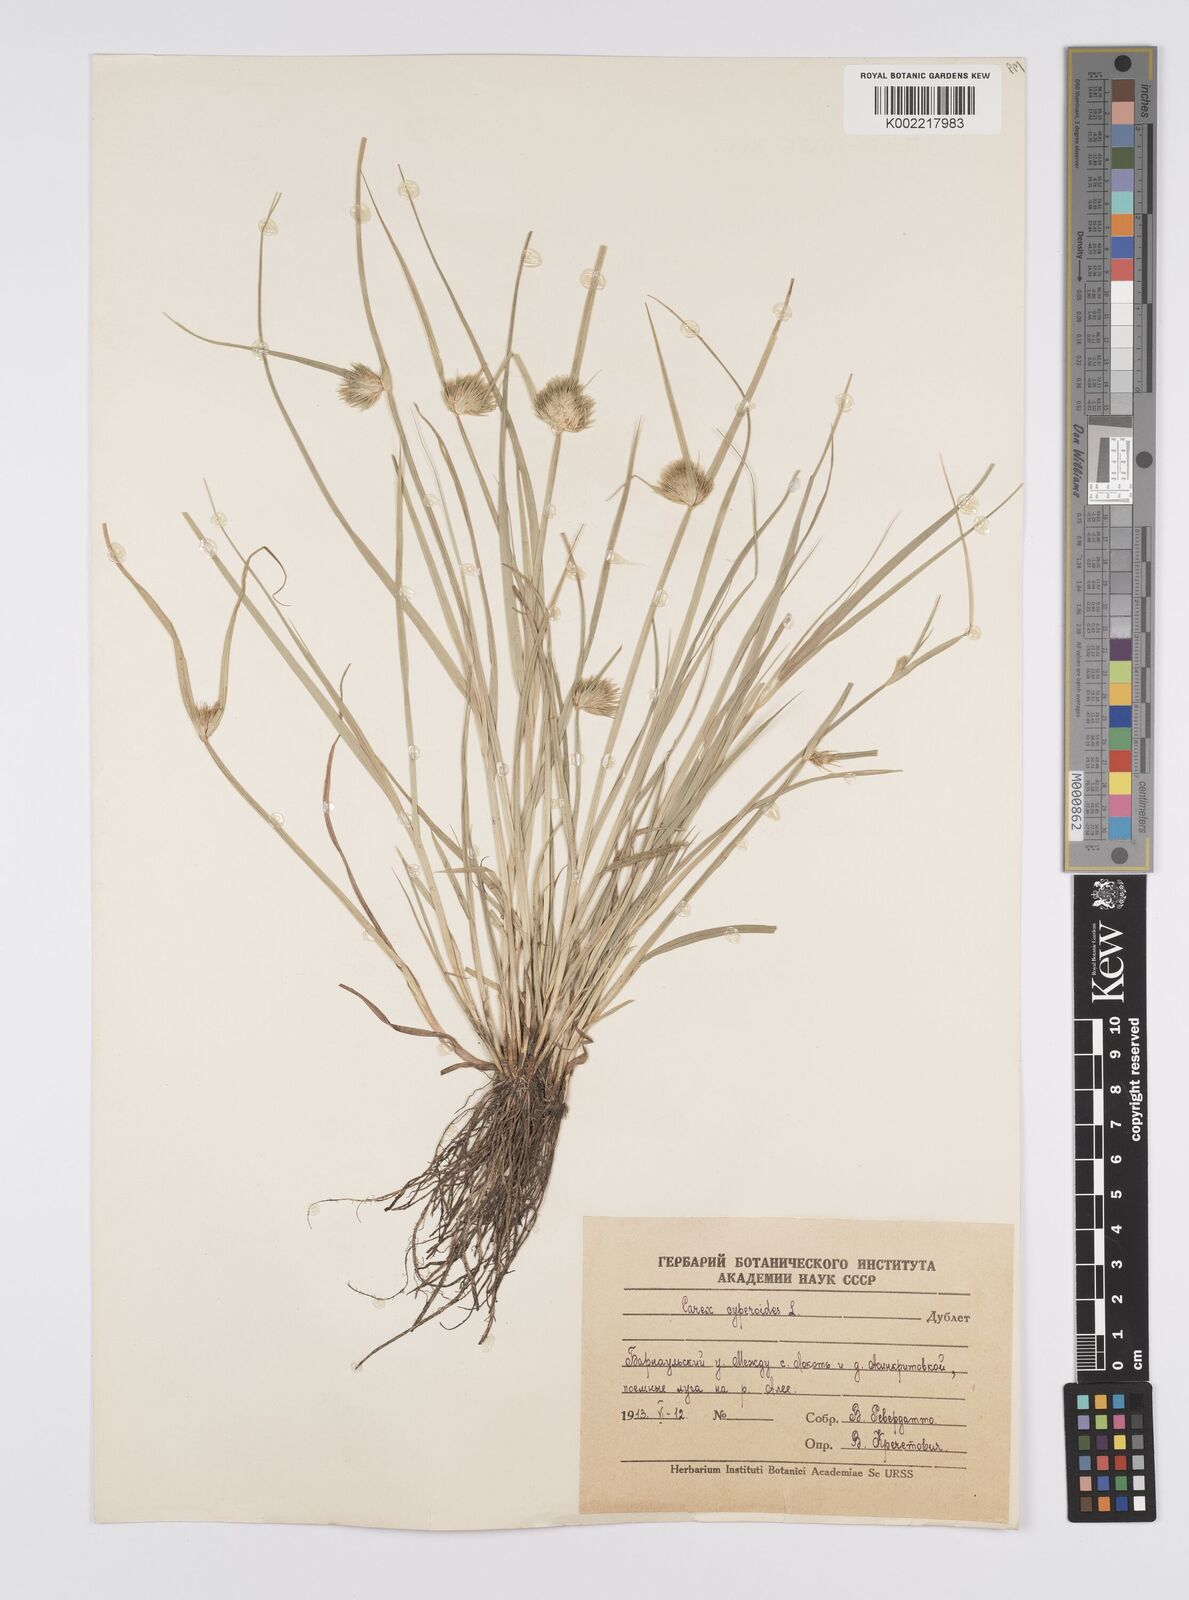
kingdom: Plantae
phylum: Tracheophyta
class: Liliopsida
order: Poales
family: Cyperaceae
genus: Carex
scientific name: Carex bohemica
